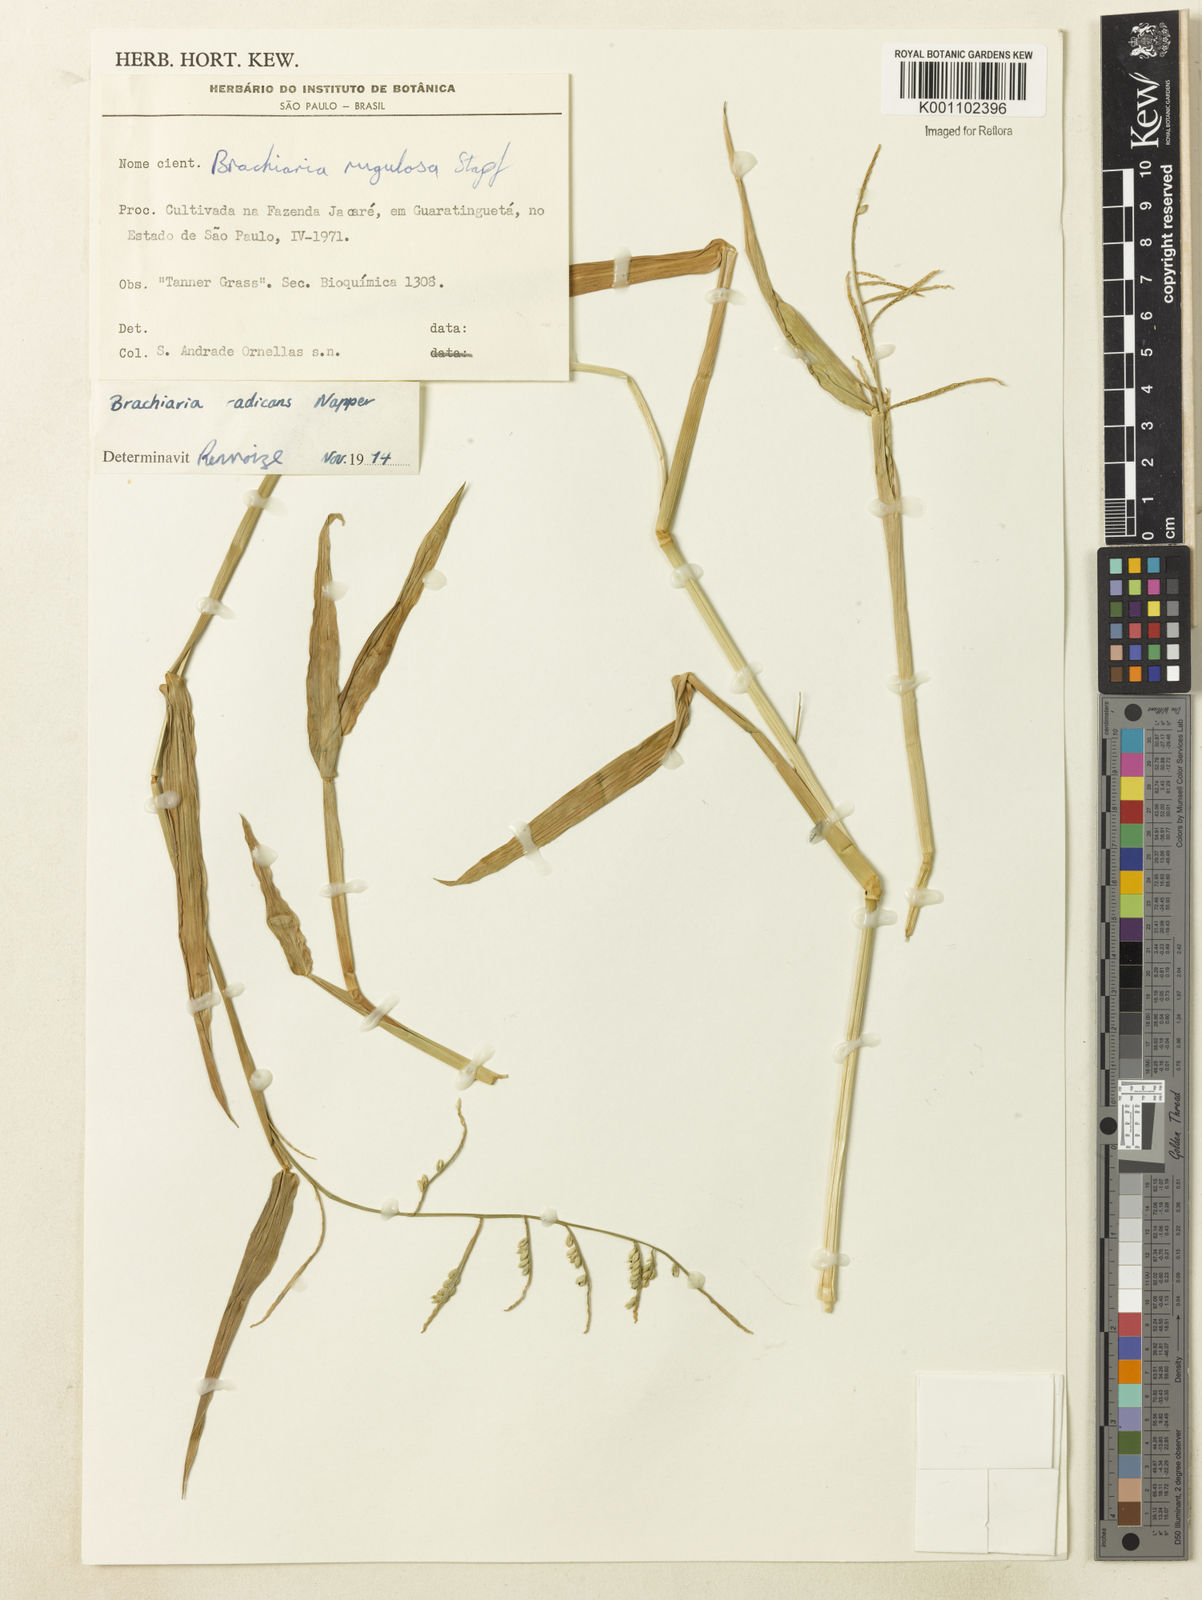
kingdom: Plantae
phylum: Tracheophyta
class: Liliopsida
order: Poales
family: Poaceae
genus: Urochloa
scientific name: Urochloa arrecta
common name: African signalgrass
